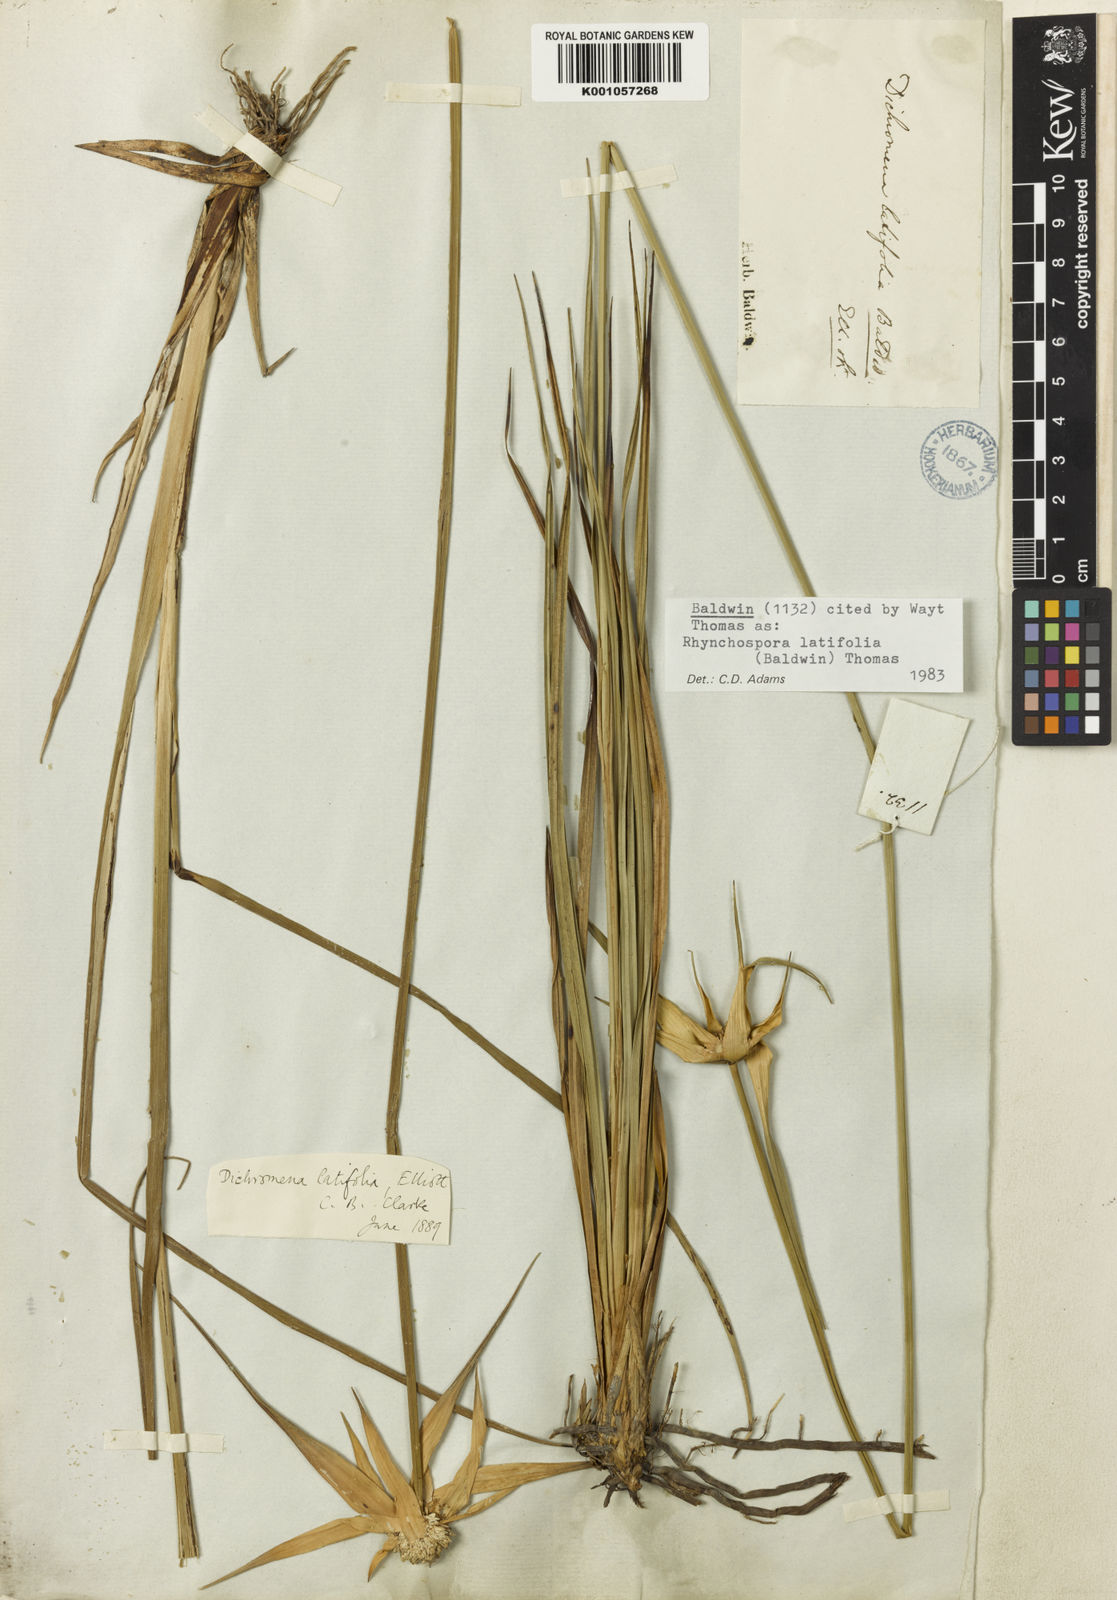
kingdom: Plantae
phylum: Tracheophyta
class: Liliopsida
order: Poales
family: Cyperaceae
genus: Rhynchospora
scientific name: Rhynchospora colorata
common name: Star sedge
